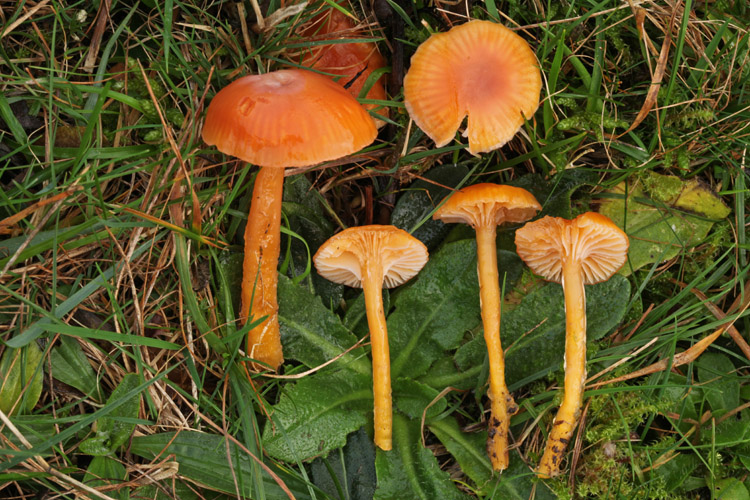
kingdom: Fungi
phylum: Basidiomycota
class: Agaricomycetes
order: Agaricales
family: Hygrophoraceae
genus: Gliophorus
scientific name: Gliophorus laetus
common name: brusk-vokshat
